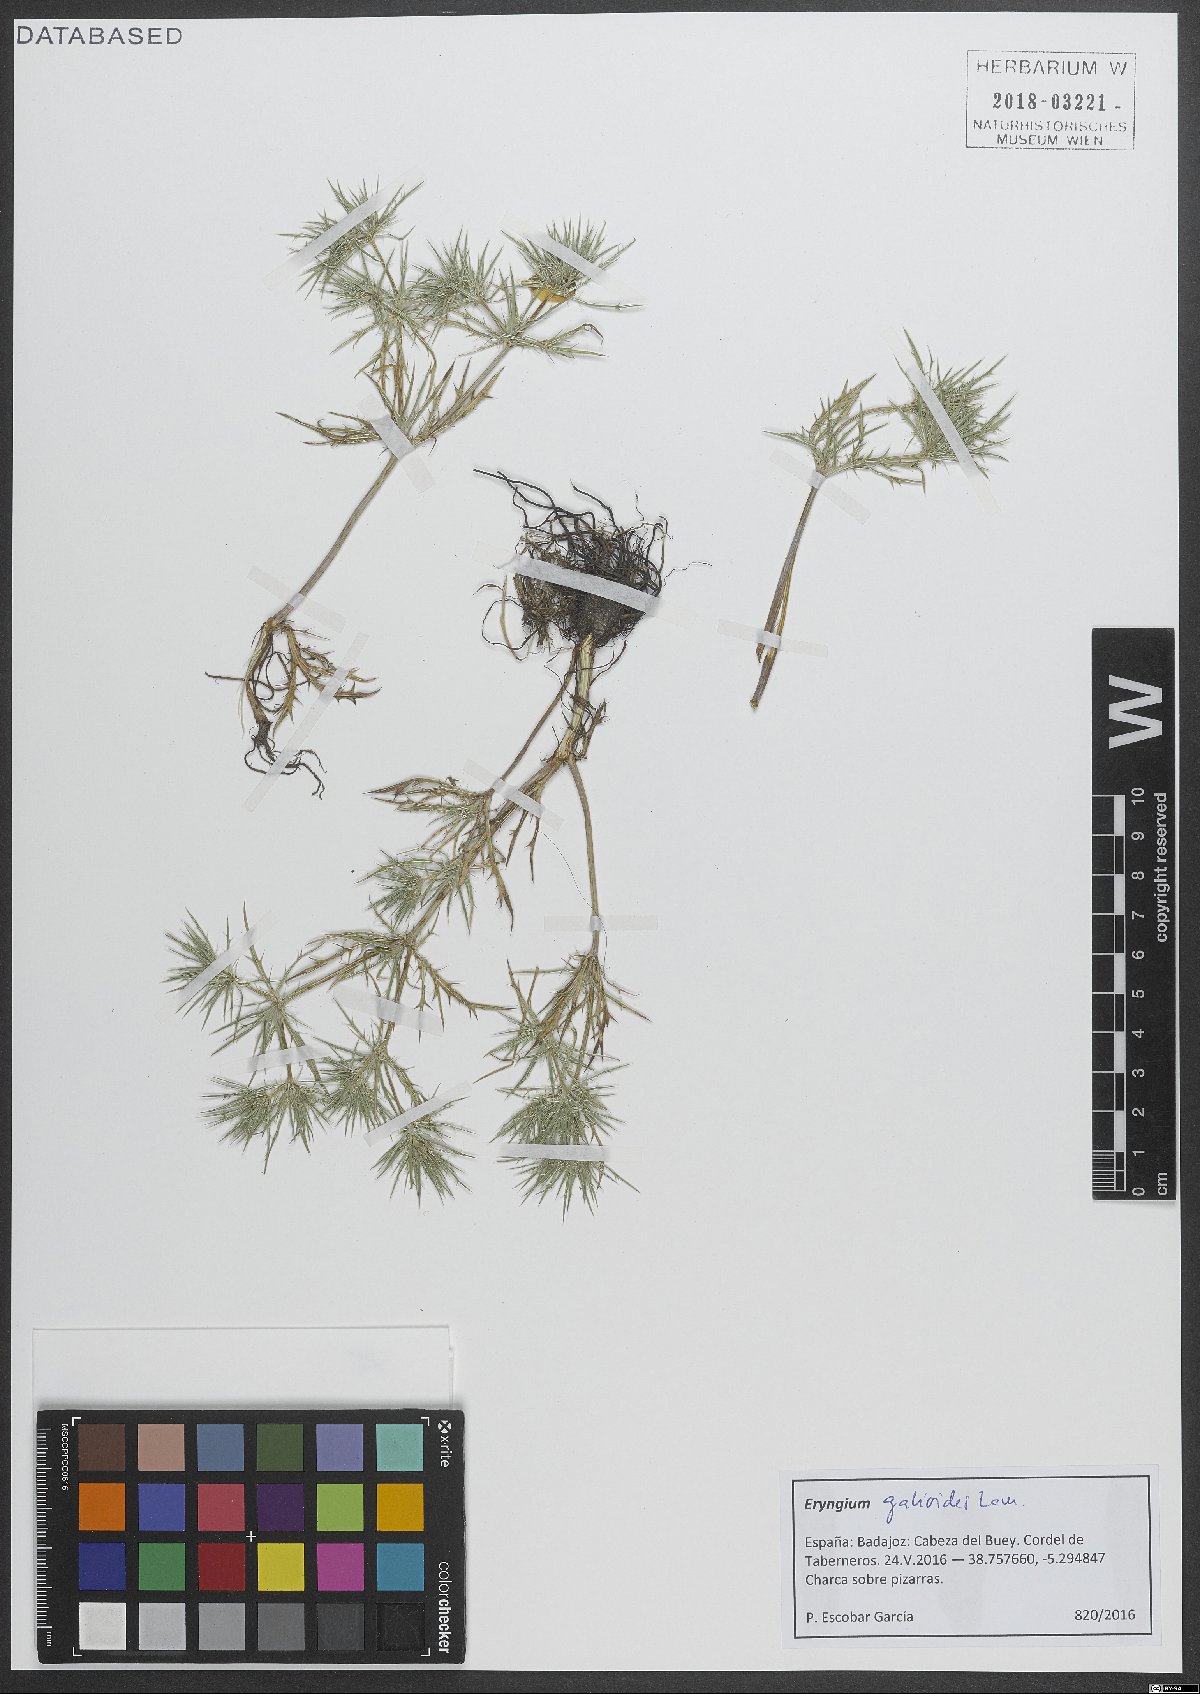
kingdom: Plantae
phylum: Tracheophyta
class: Magnoliopsida
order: Apiales
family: Apiaceae
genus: Eryngium
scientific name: Eryngium galioides
